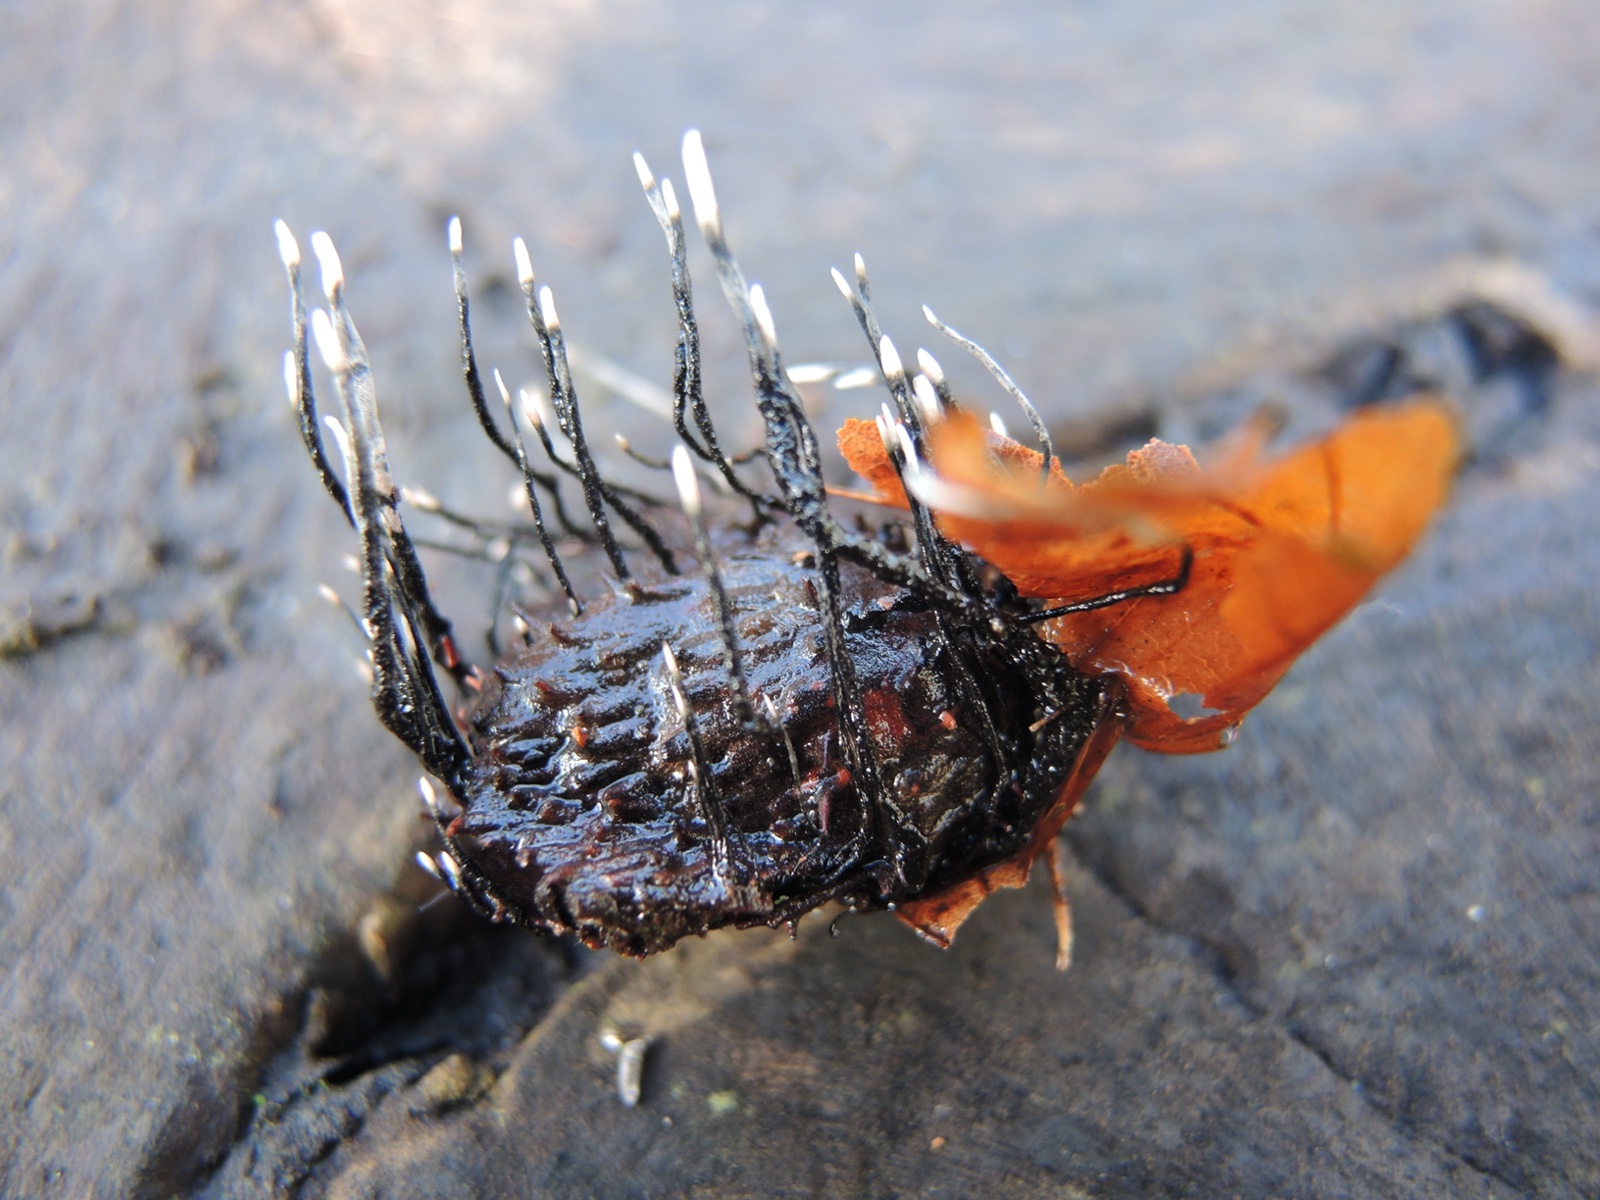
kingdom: Fungi
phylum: Ascomycota
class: Sordariomycetes
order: Xylariales
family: Xylariaceae
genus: Xylaria
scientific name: Xylaria carpophila
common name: bogskål-stødsvamp
